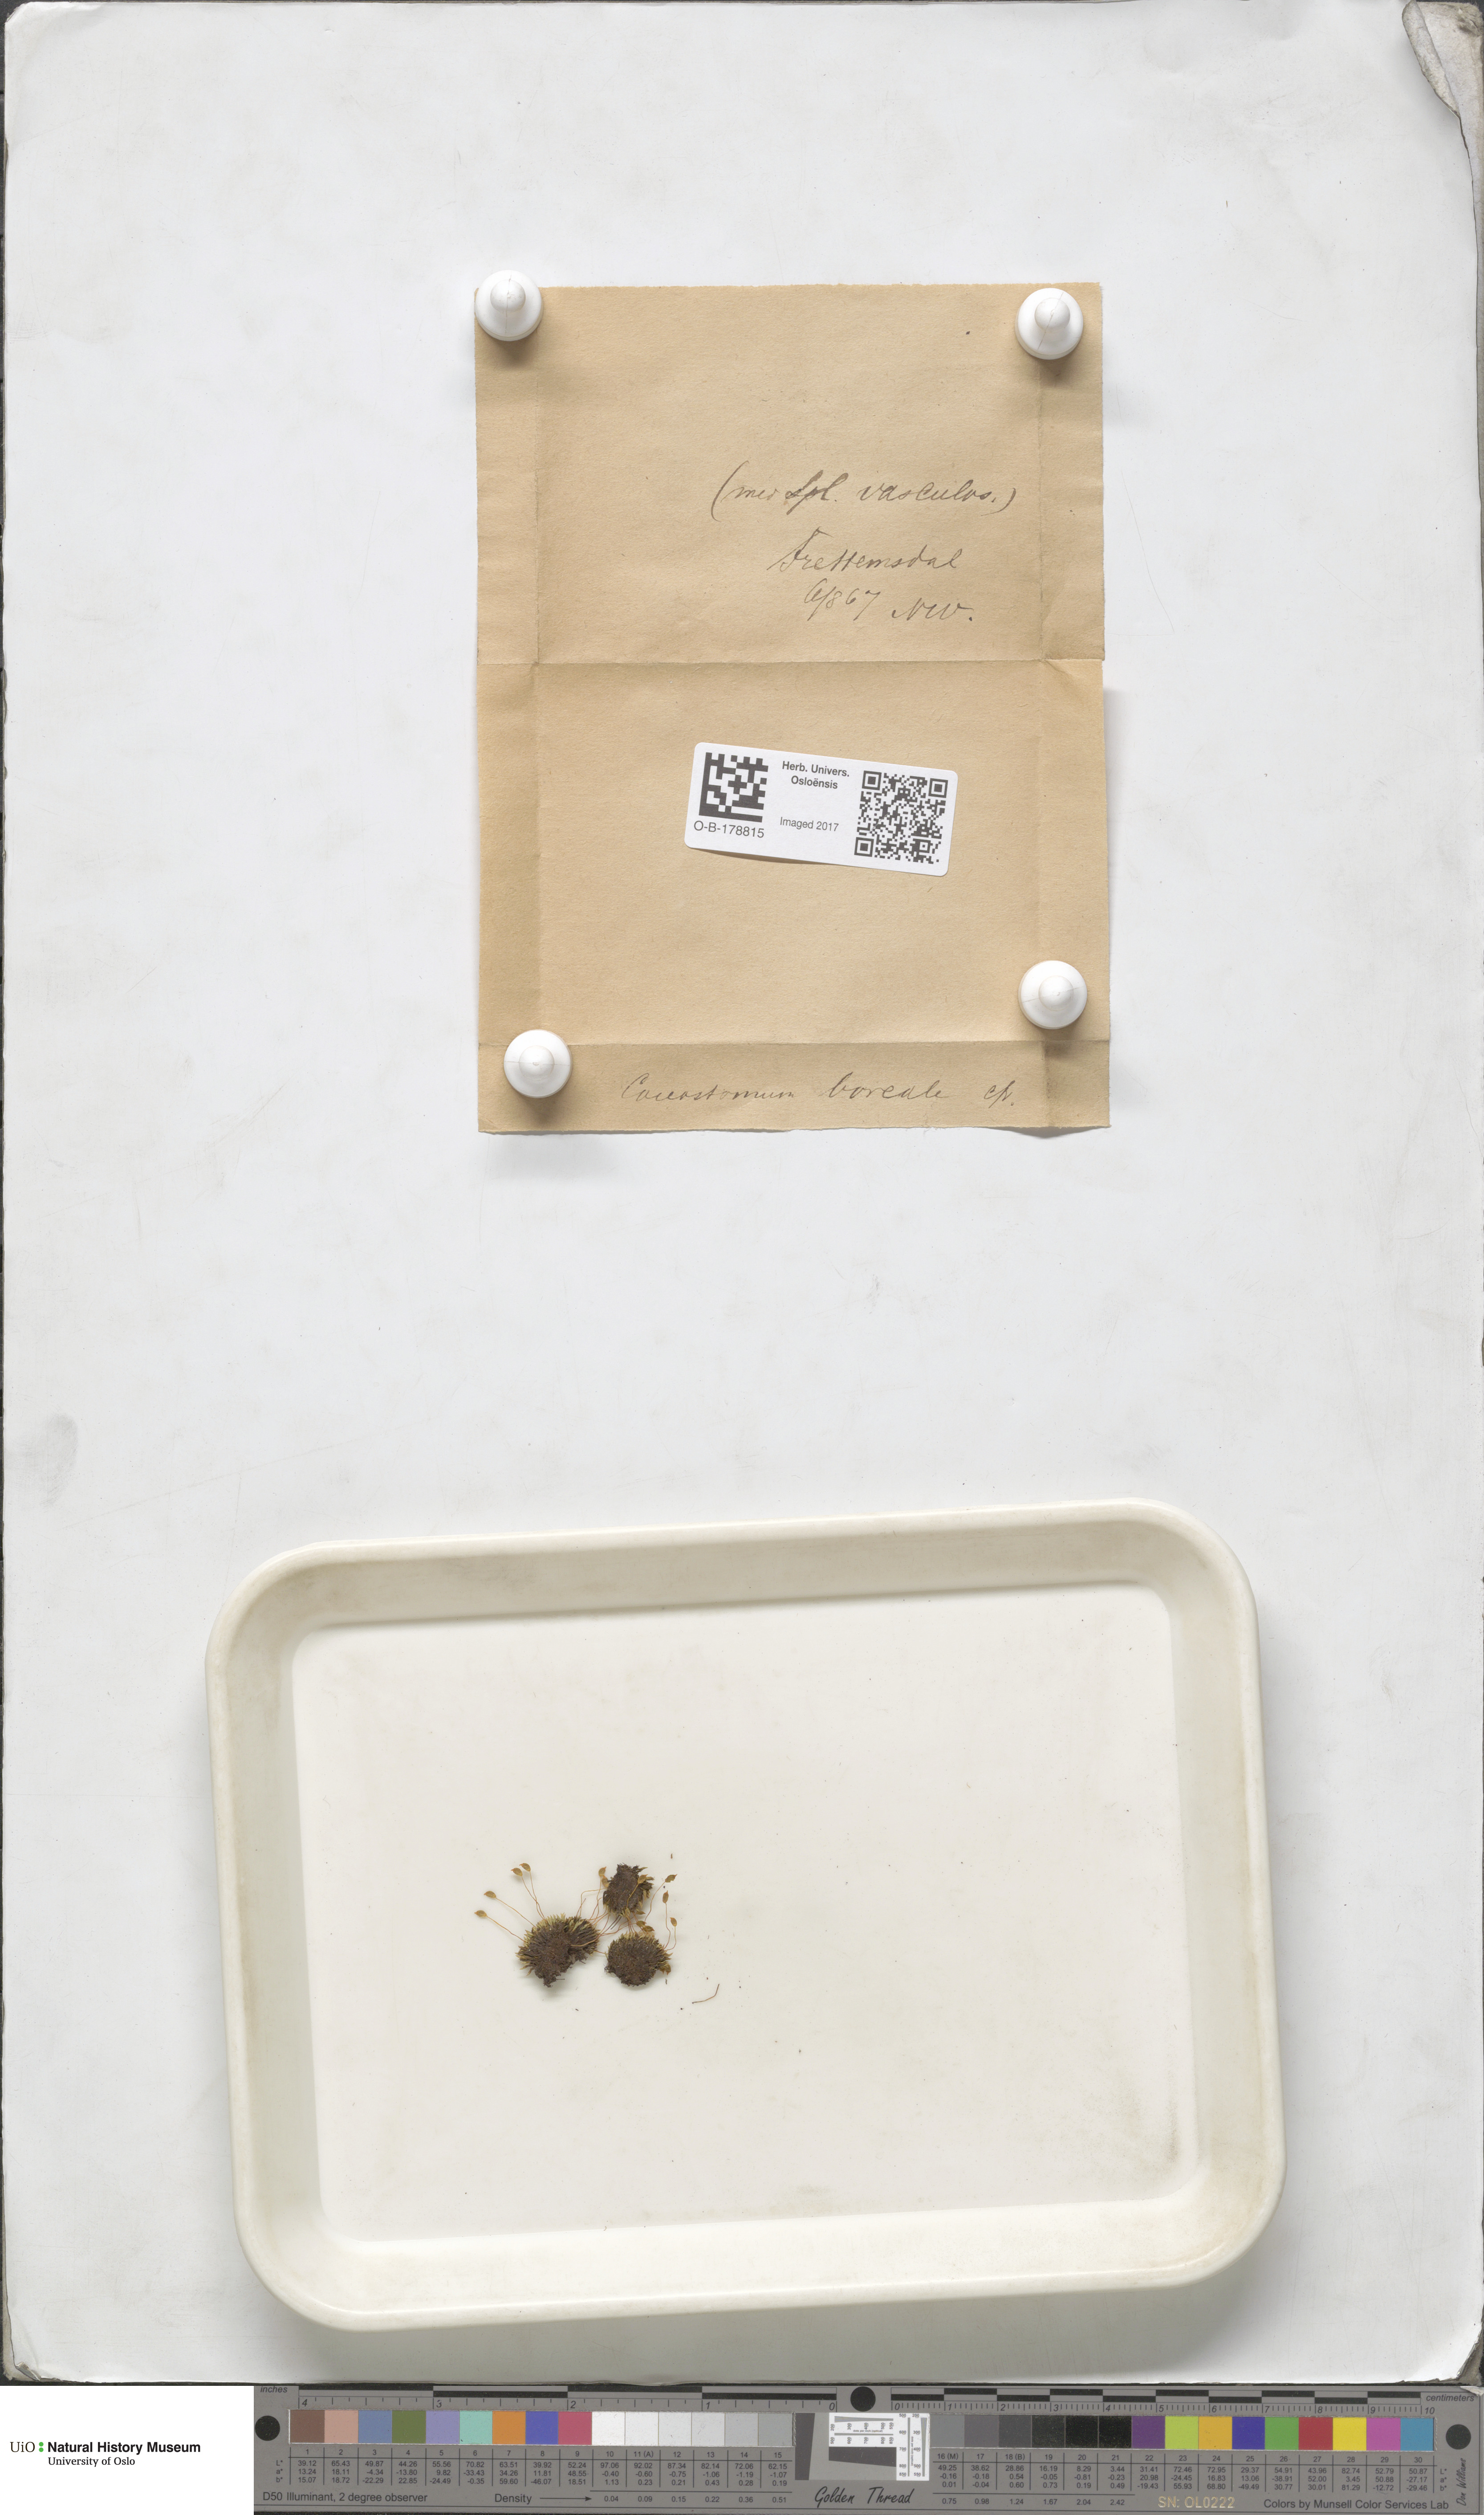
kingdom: Plantae
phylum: Bryophyta
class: Bryopsida
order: Bartramiales
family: Bartramiaceae
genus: Conostomum
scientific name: Conostomum tetragonum
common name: Helmet moss
